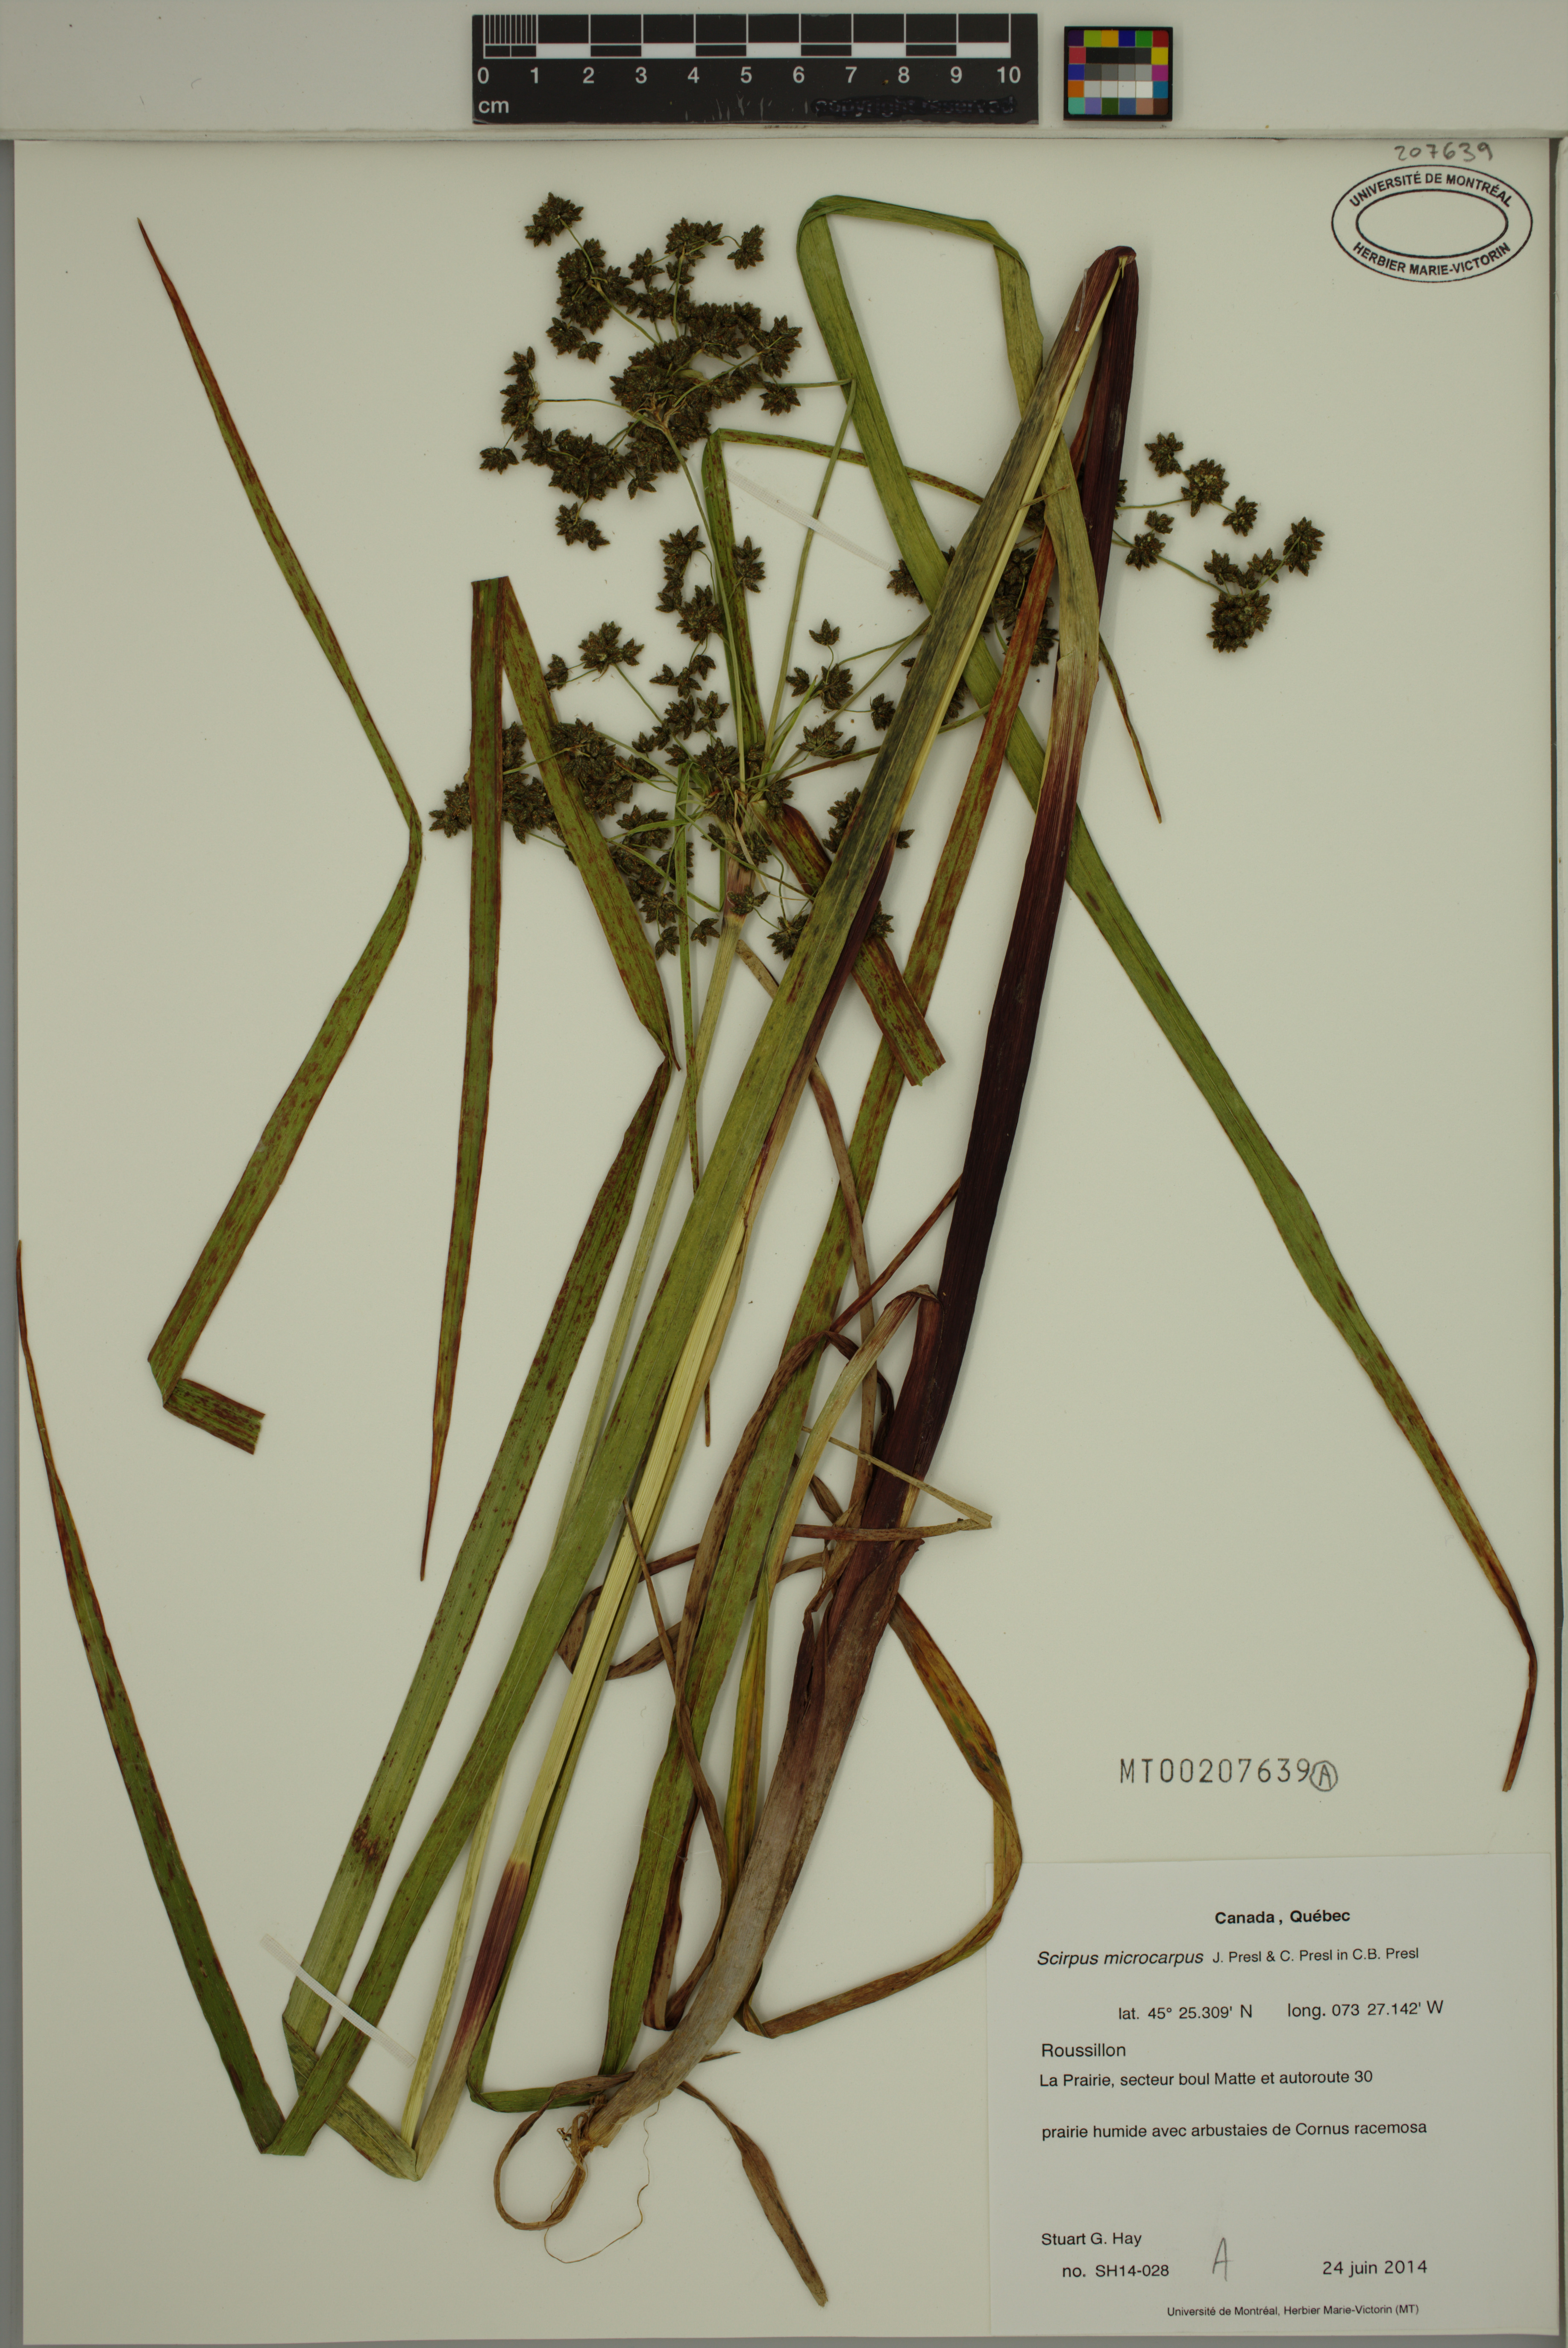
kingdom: Plantae
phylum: Tracheophyta
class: Liliopsida
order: Poales
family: Cyperaceae
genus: Scirpus
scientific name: Scirpus microcarpus
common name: Panicled bulrush
